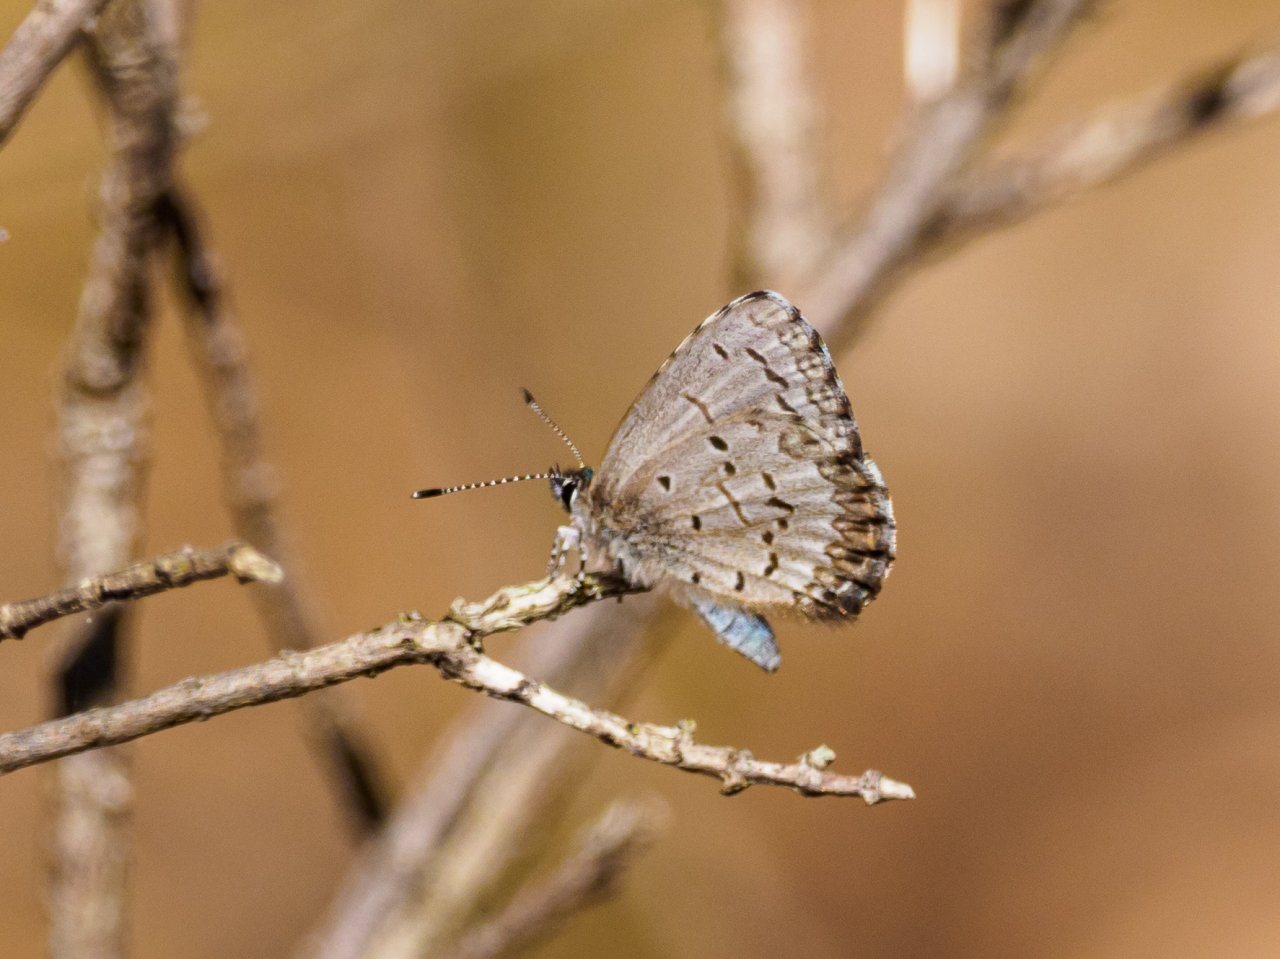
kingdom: Animalia
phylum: Arthropoda
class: Insecta
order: Lepidoptera
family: Lycaenidae
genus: Celastrina
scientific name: Celastrina ladon
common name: Spring Azure
